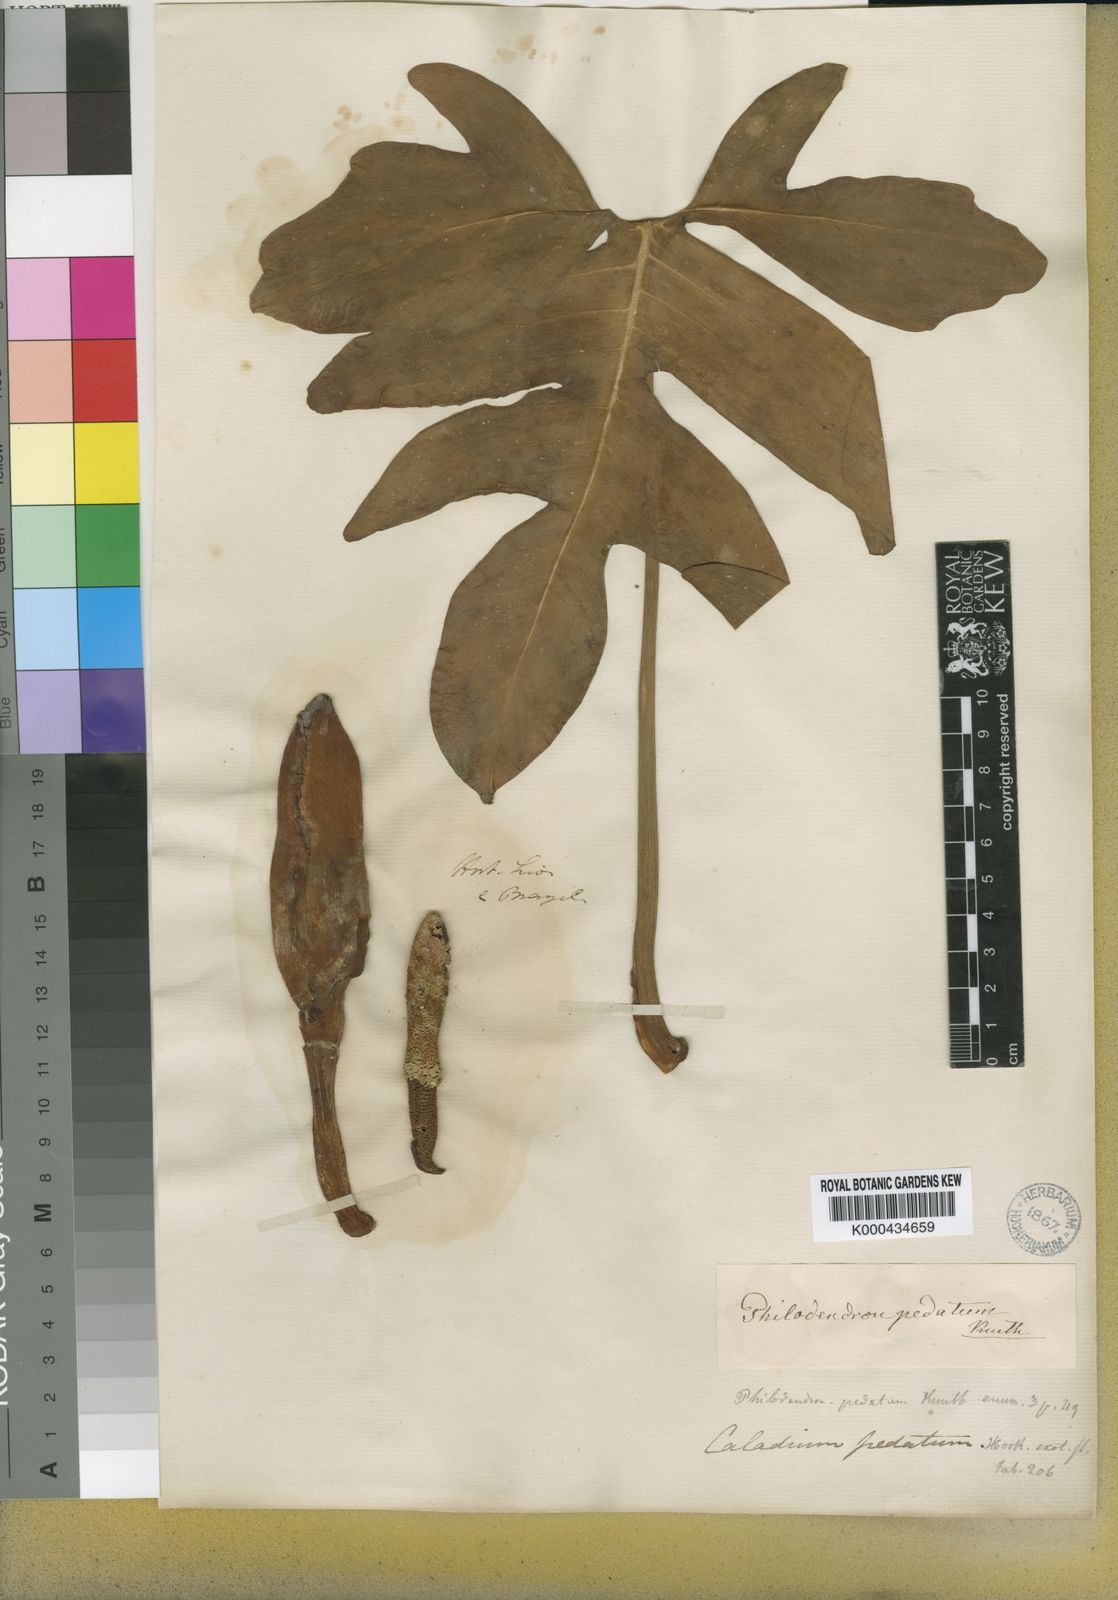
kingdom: Plantae
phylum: Tracheophyta
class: Liliopsida
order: Alismatales
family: Araceae
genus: Philodendron
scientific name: Philodendron pedatum
